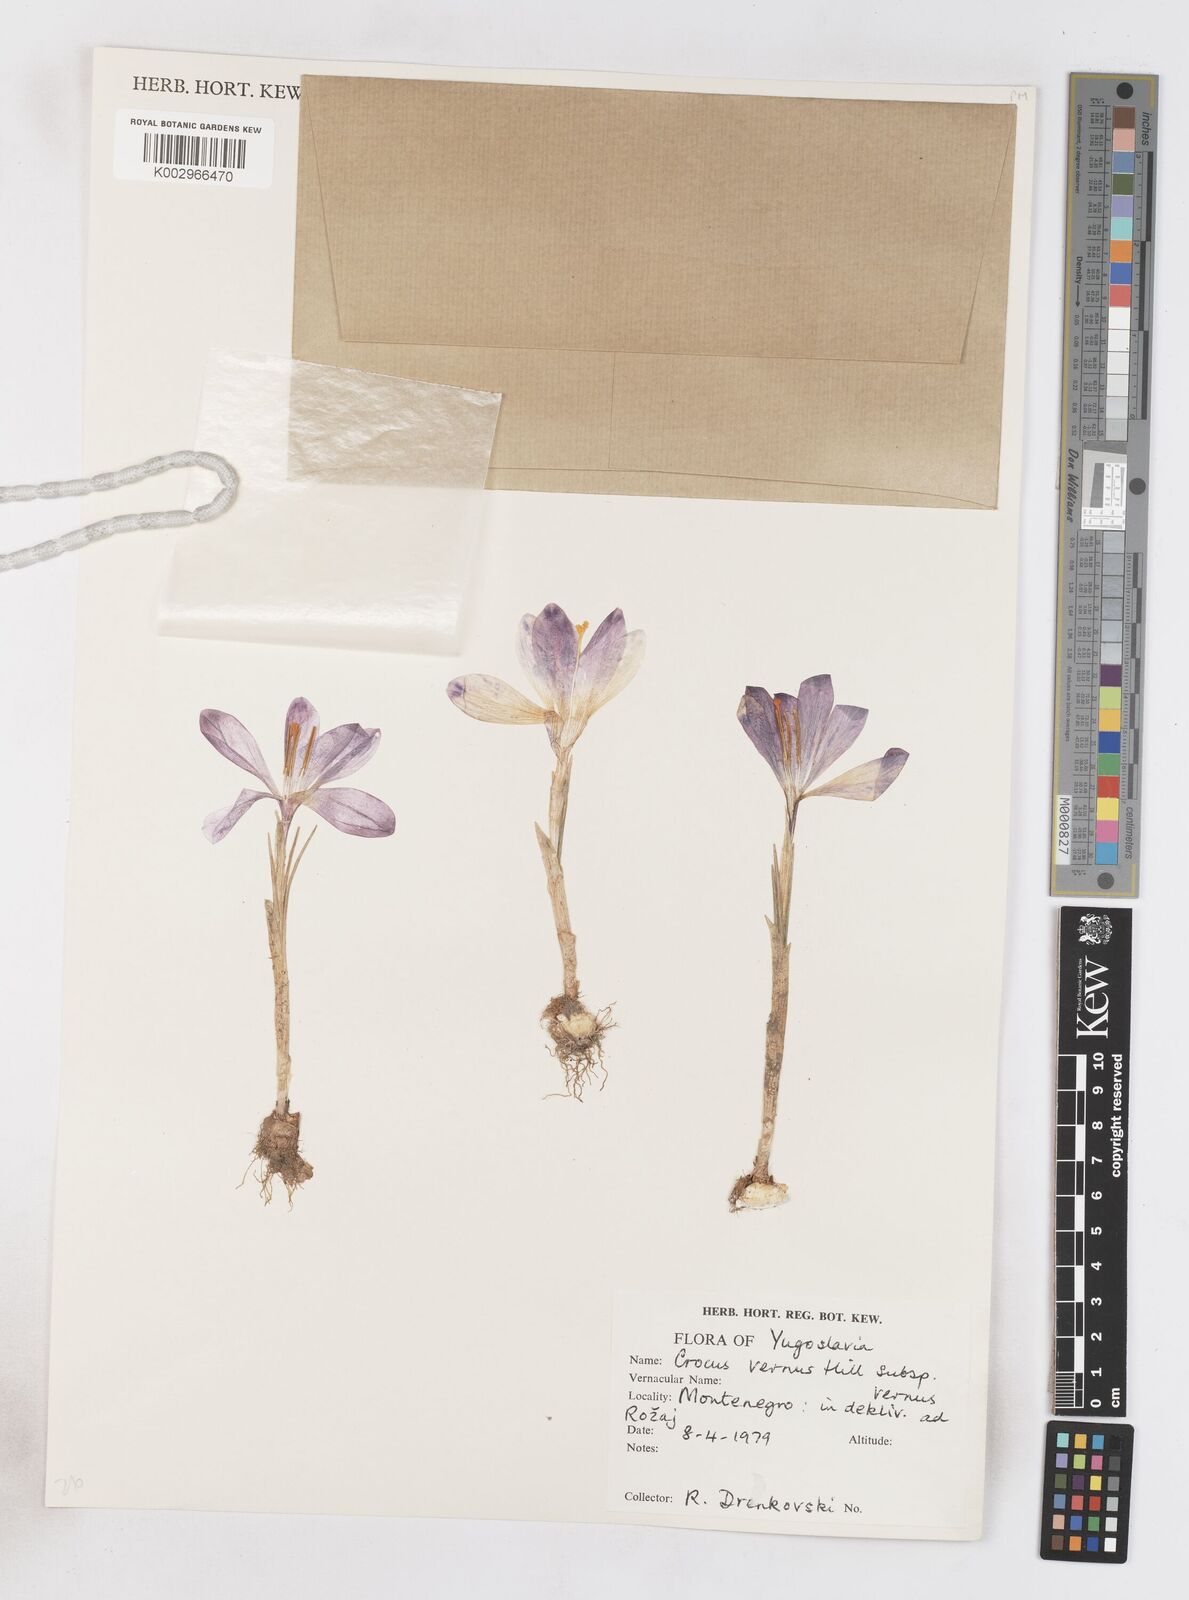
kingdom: Plantae
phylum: Tracheophyta
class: Liliopsida
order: Asparagales
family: Iridaceae
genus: Crocus
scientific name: Crocus vernus
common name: Spring crocus
